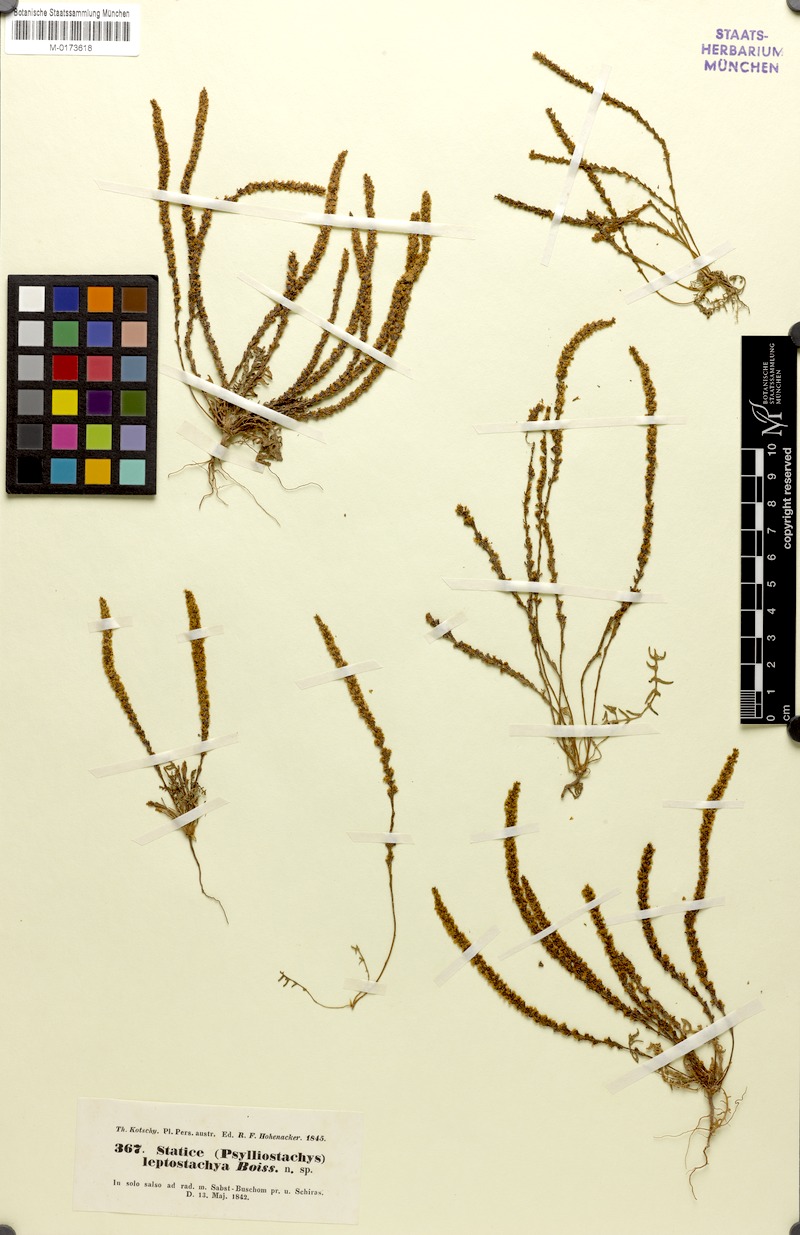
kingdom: Plantae
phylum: Tracheophyta
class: Magnoliopsida
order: Caryophyllales
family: Plumbaginaceae
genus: Psylliostachys
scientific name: Psylliostachys leptostachyus
